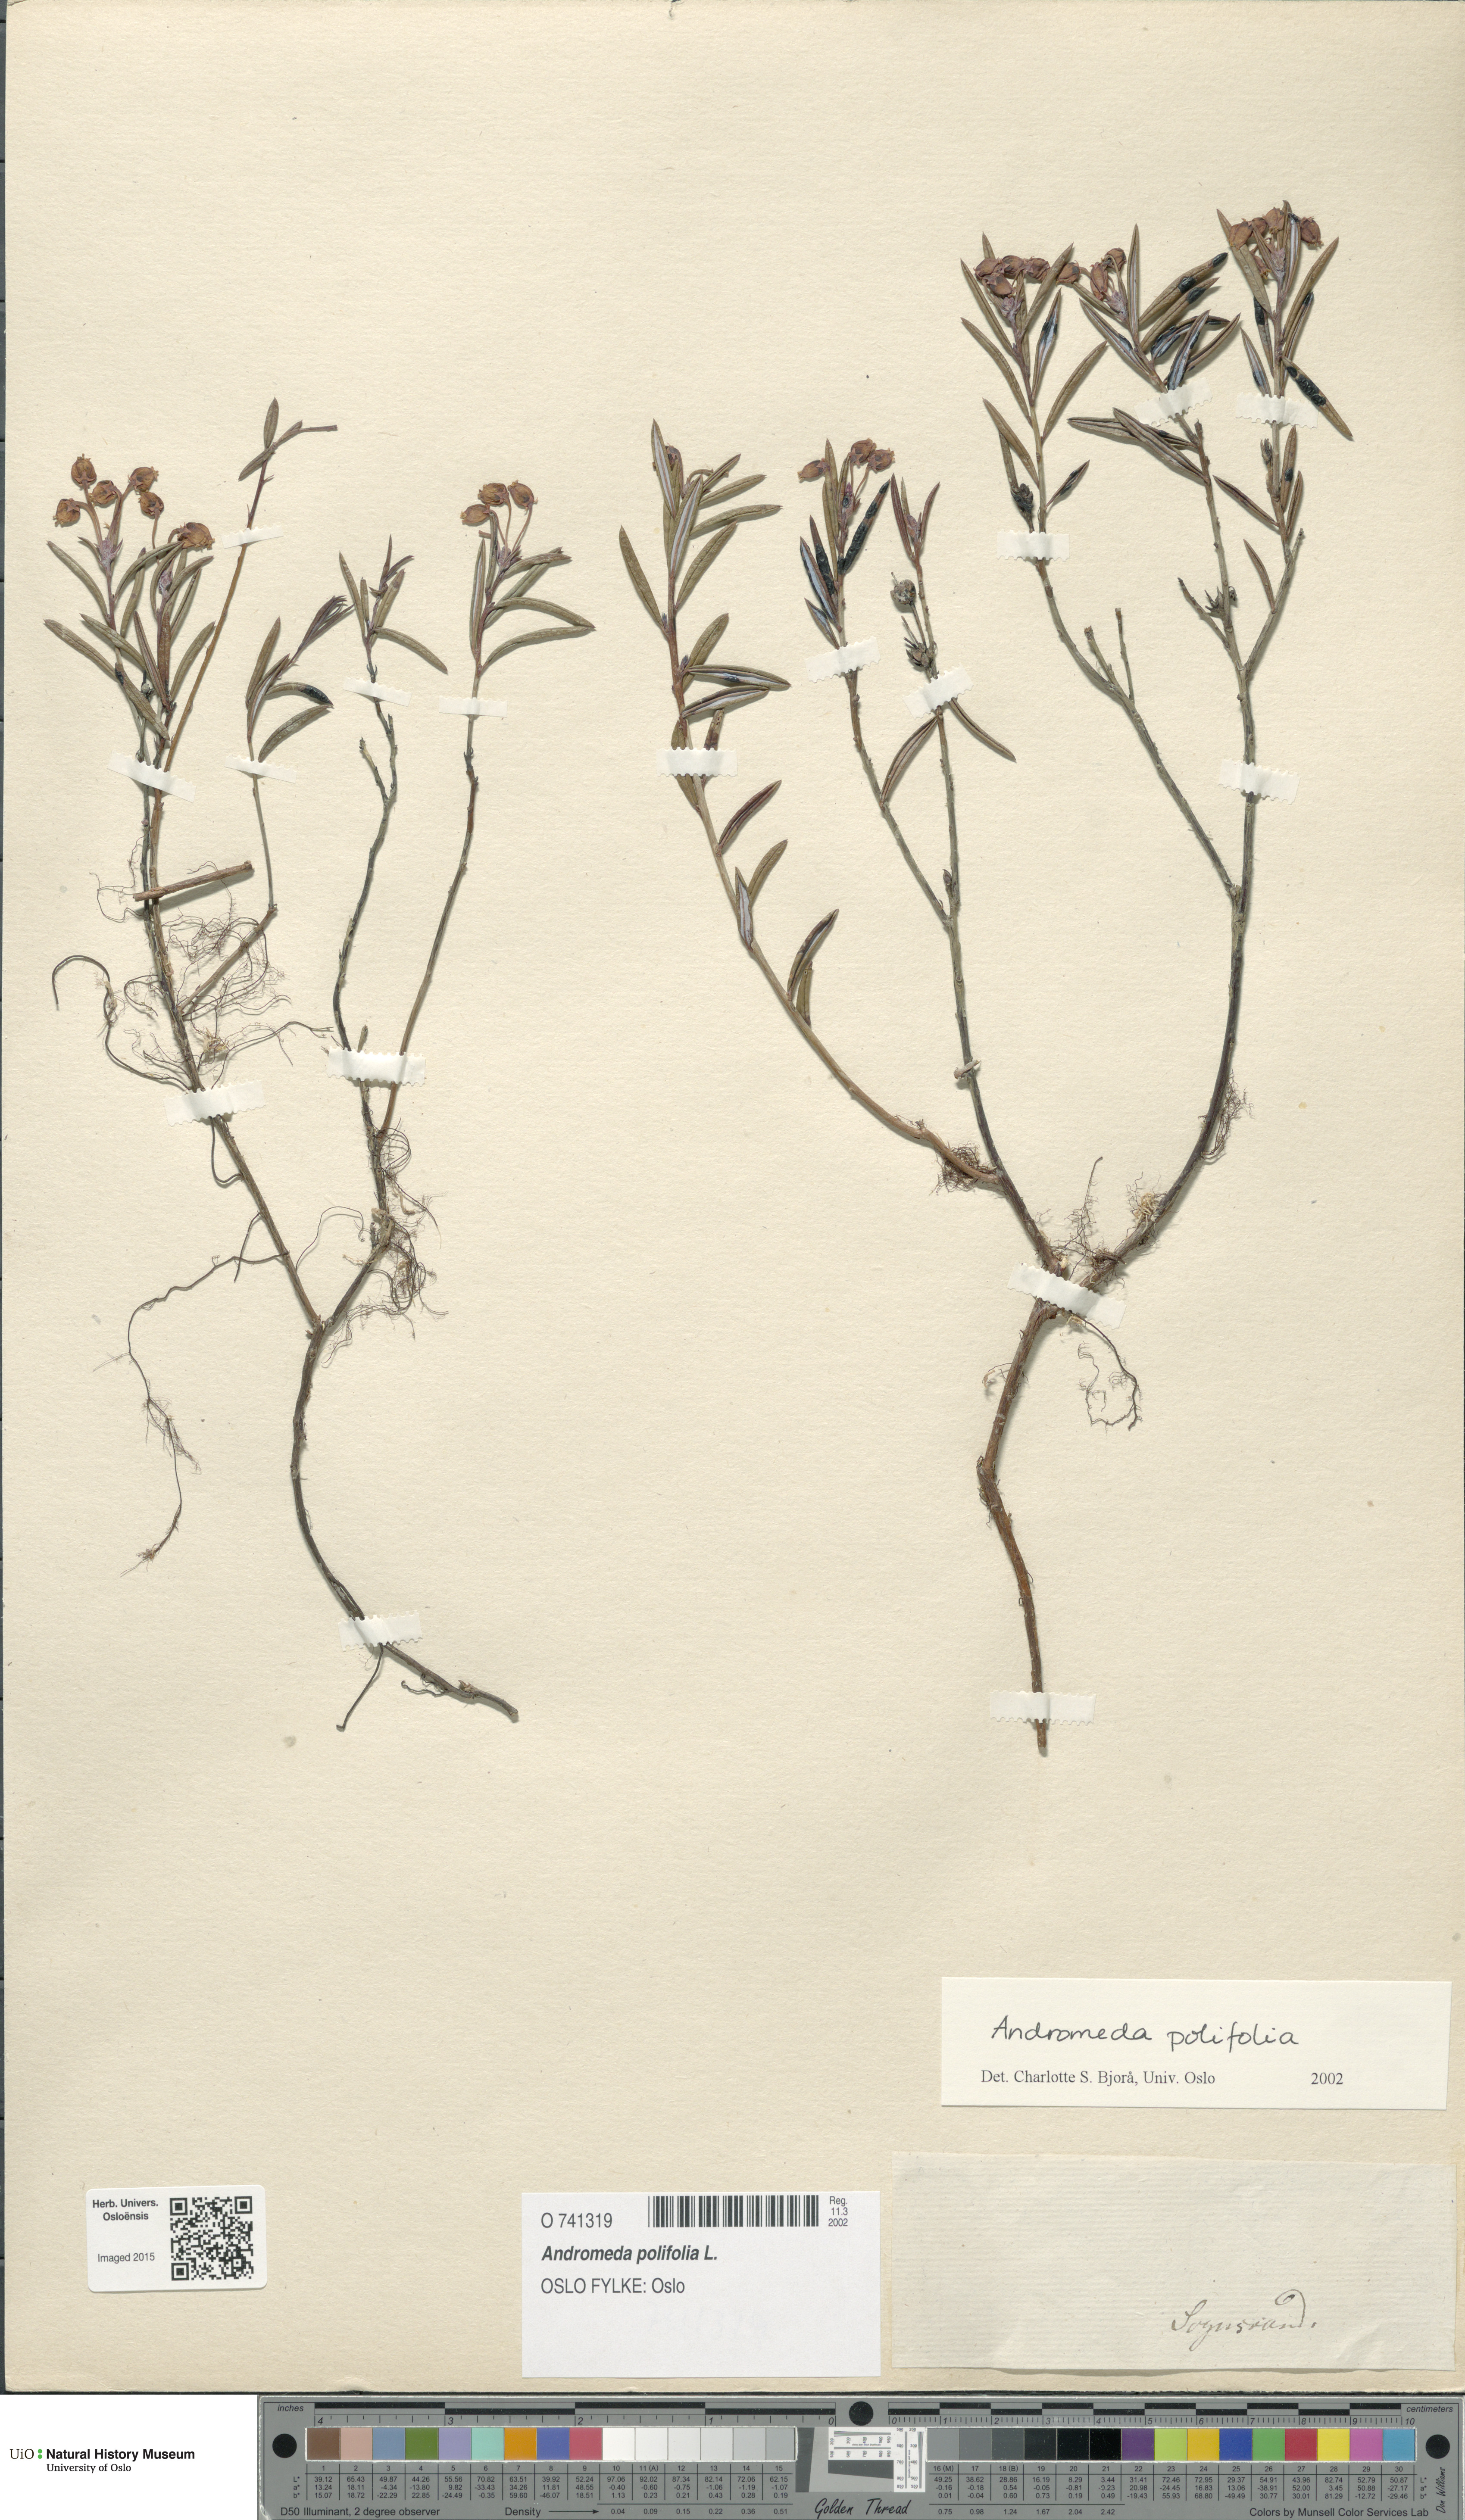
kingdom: Plantae
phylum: Tracheophyta
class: Magnoliopsida
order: Ericales
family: Ericaceae
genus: Andromeda
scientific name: Andromeda polifolia
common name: Bog-rosemary
